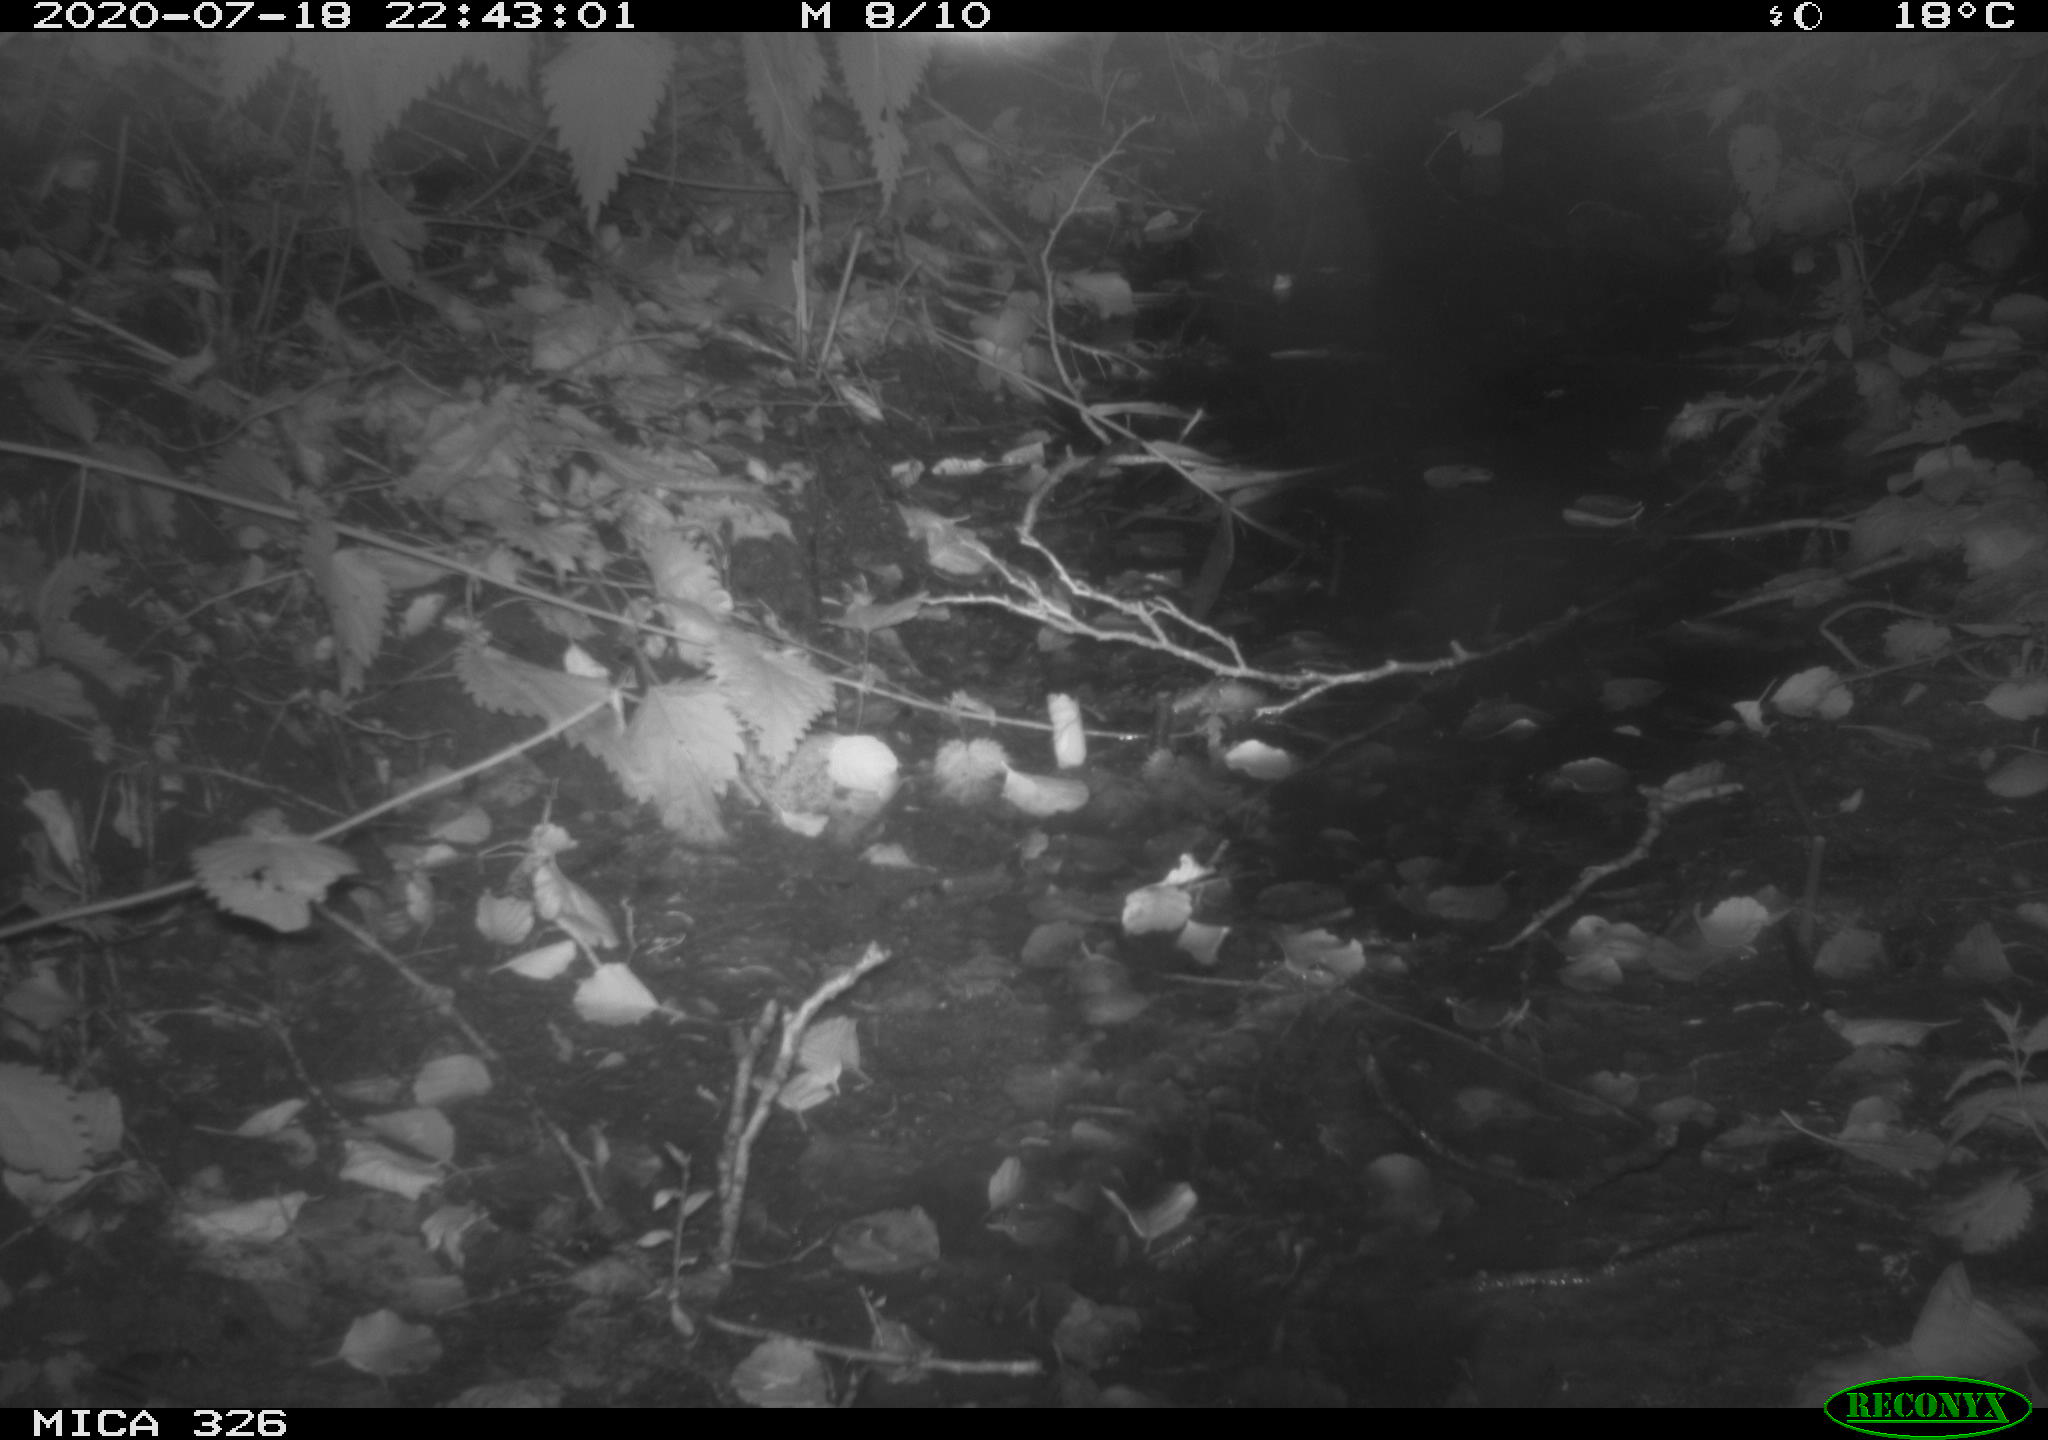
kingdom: Animalia
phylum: Chordata
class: Mammalia
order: Rodentia
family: Myocastoridae
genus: Myocastor
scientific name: Myocastor coypus
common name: Coypu
